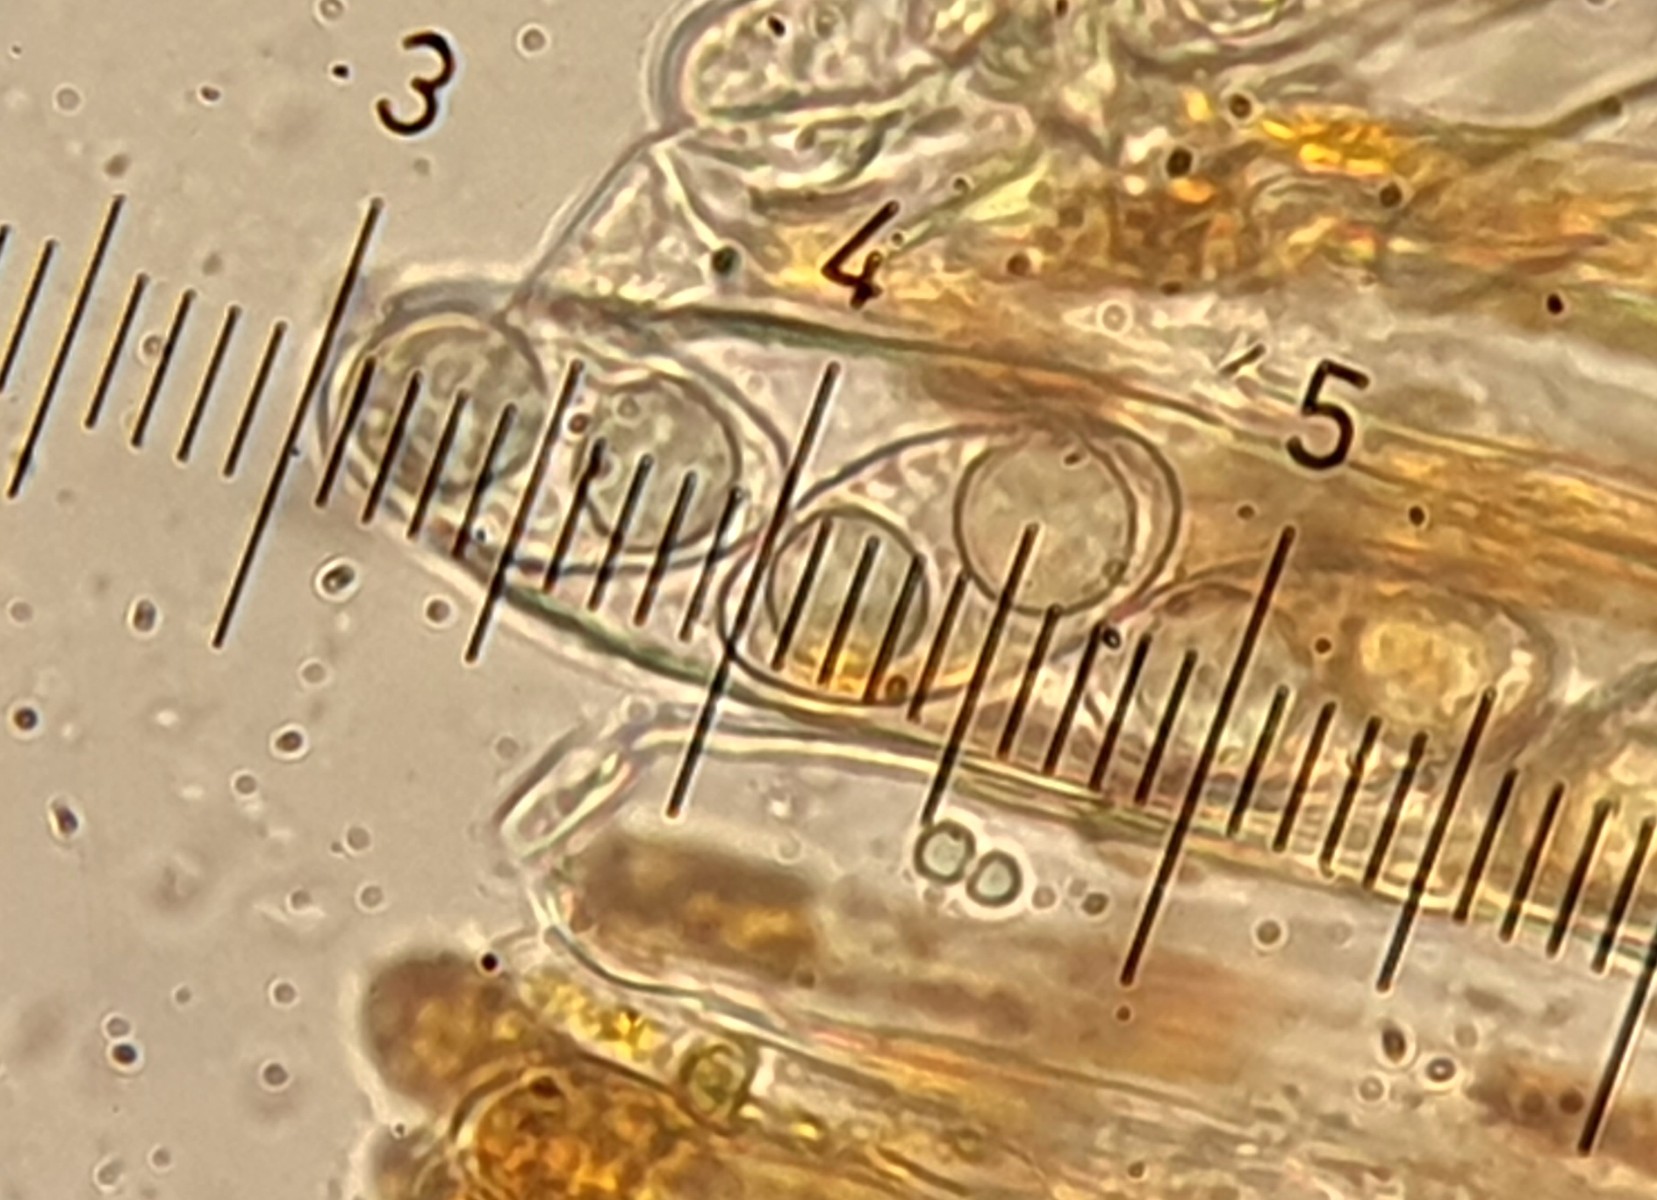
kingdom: Fungi
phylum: Ascomycota
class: Pezizomycetes
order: Pezizales
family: Pyronemataceae
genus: Neottiella
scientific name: Neottiella rutilans
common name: jomfruhår-mosbæger
